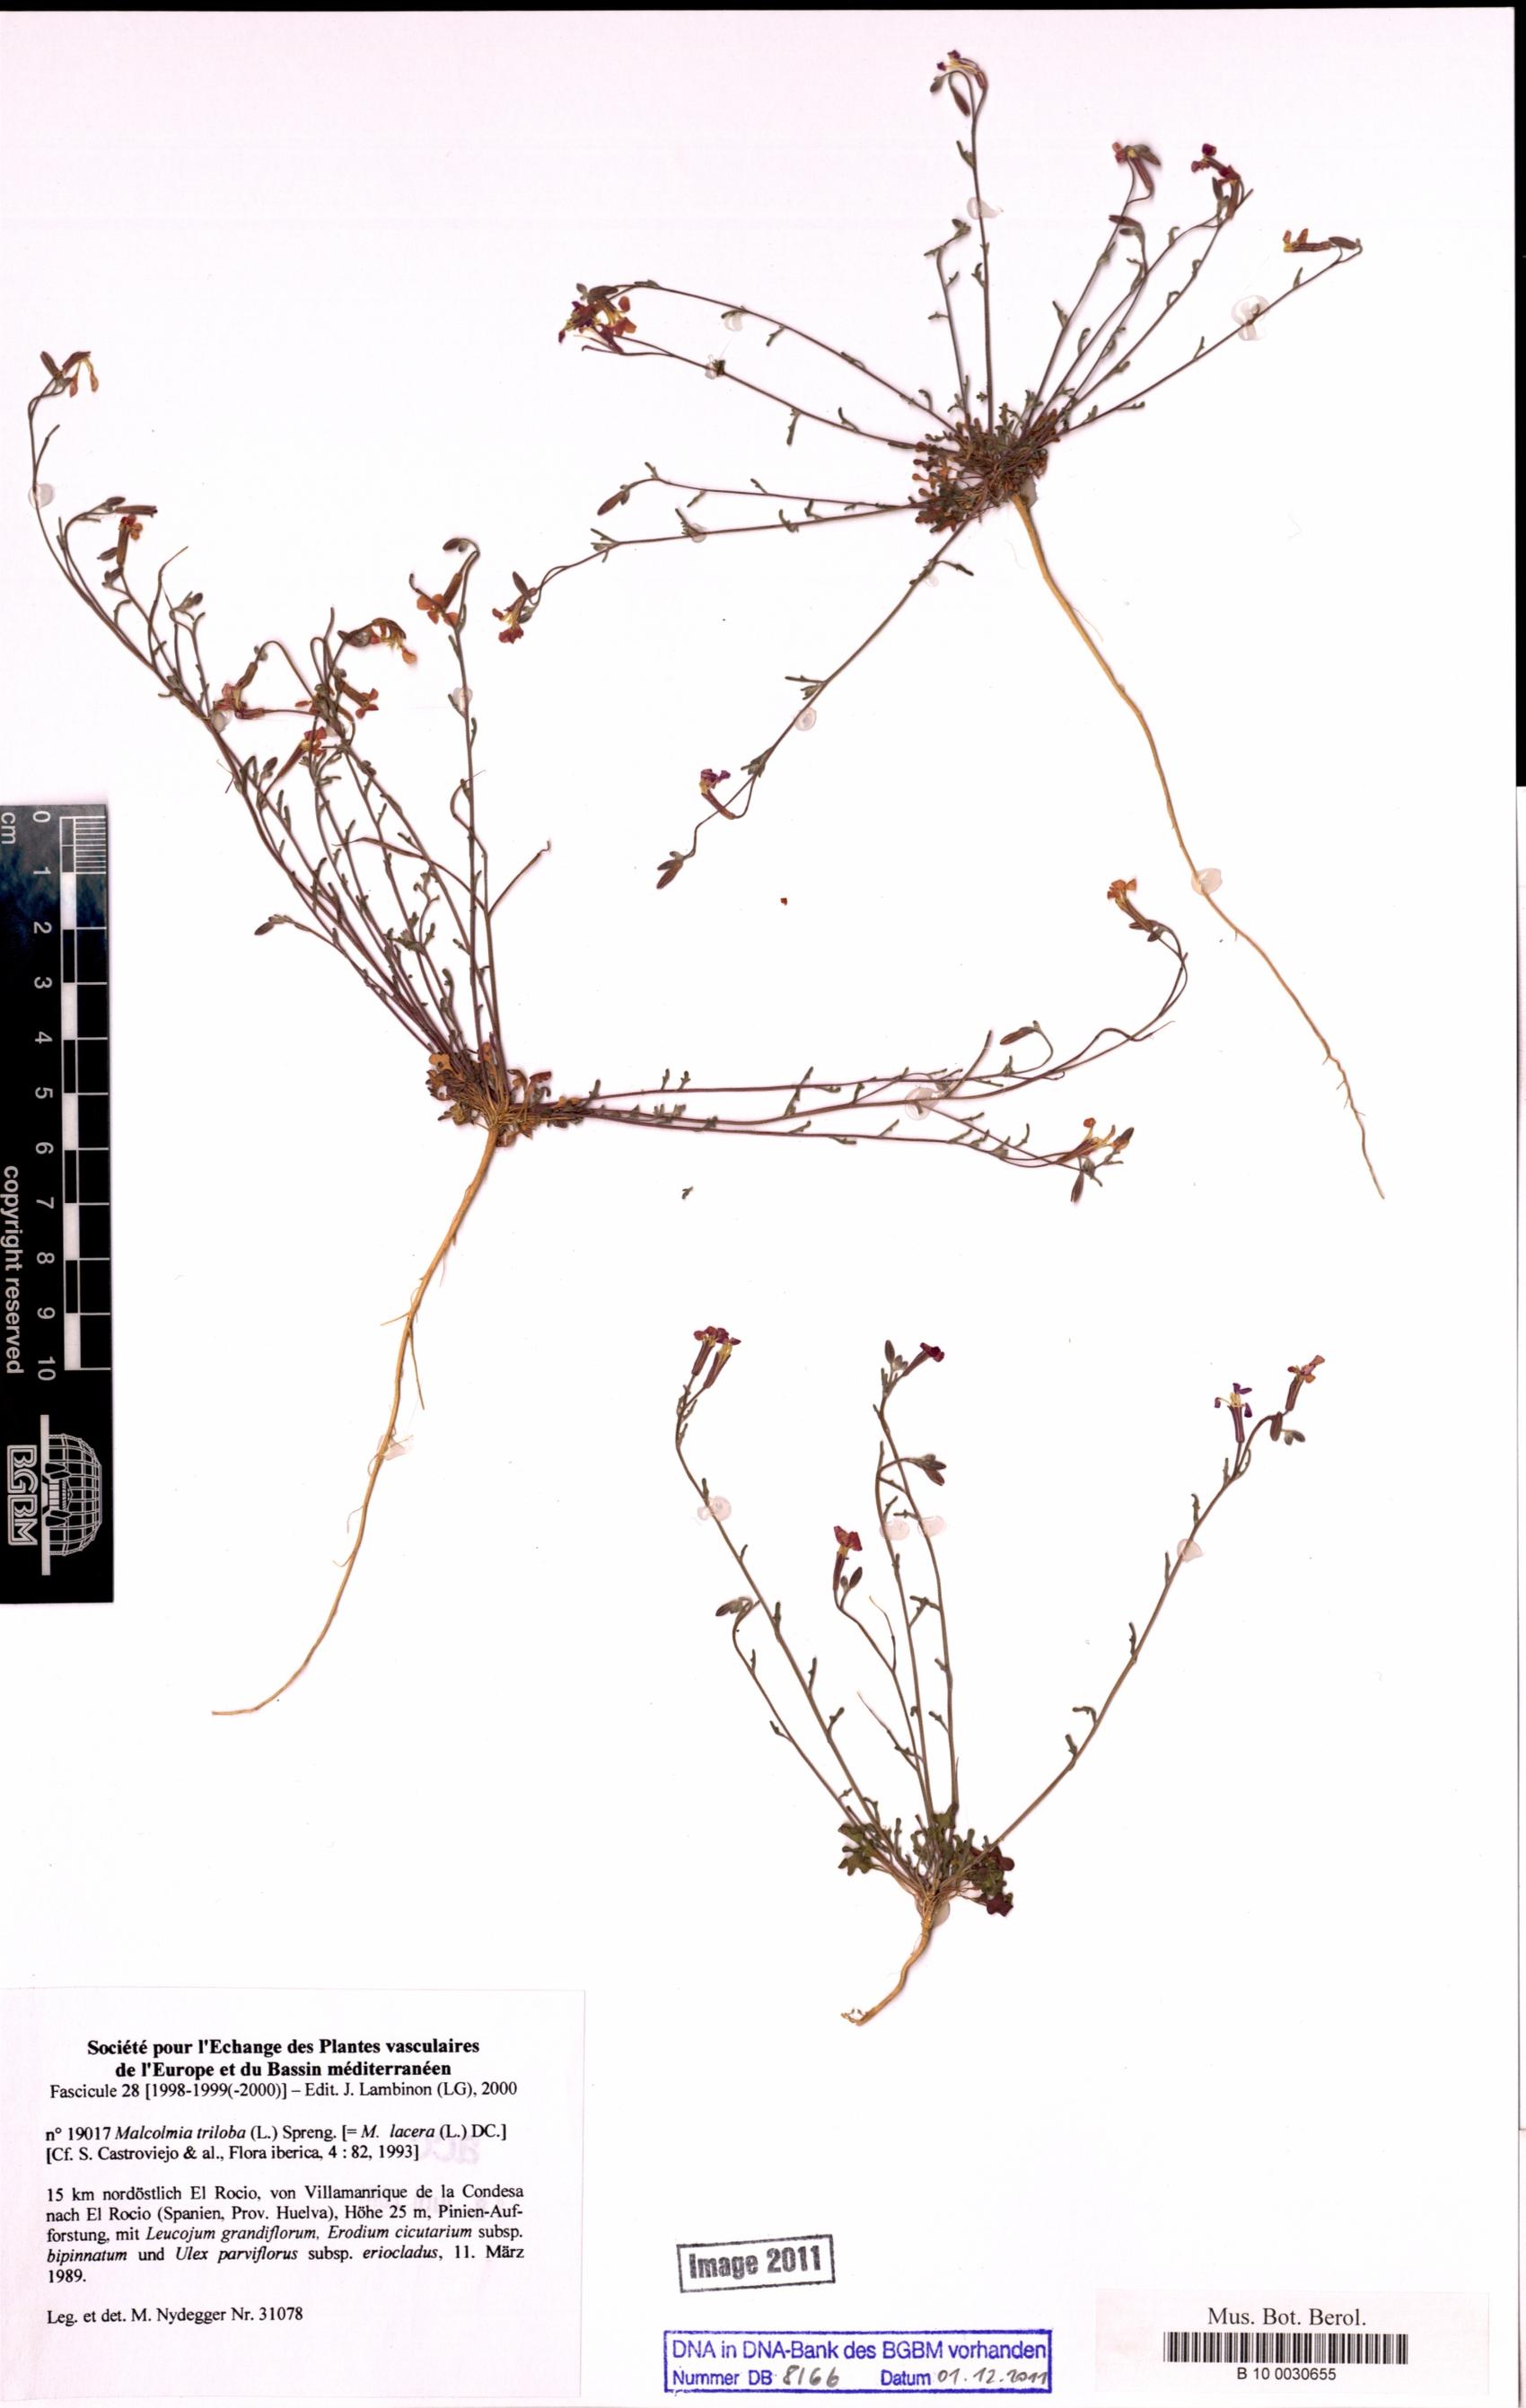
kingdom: Plantae
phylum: Tracheophyta
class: Magnoliopsida
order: Brassicales
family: Brassicaceae
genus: Marcuskochia
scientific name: Marcuskochia triloba
